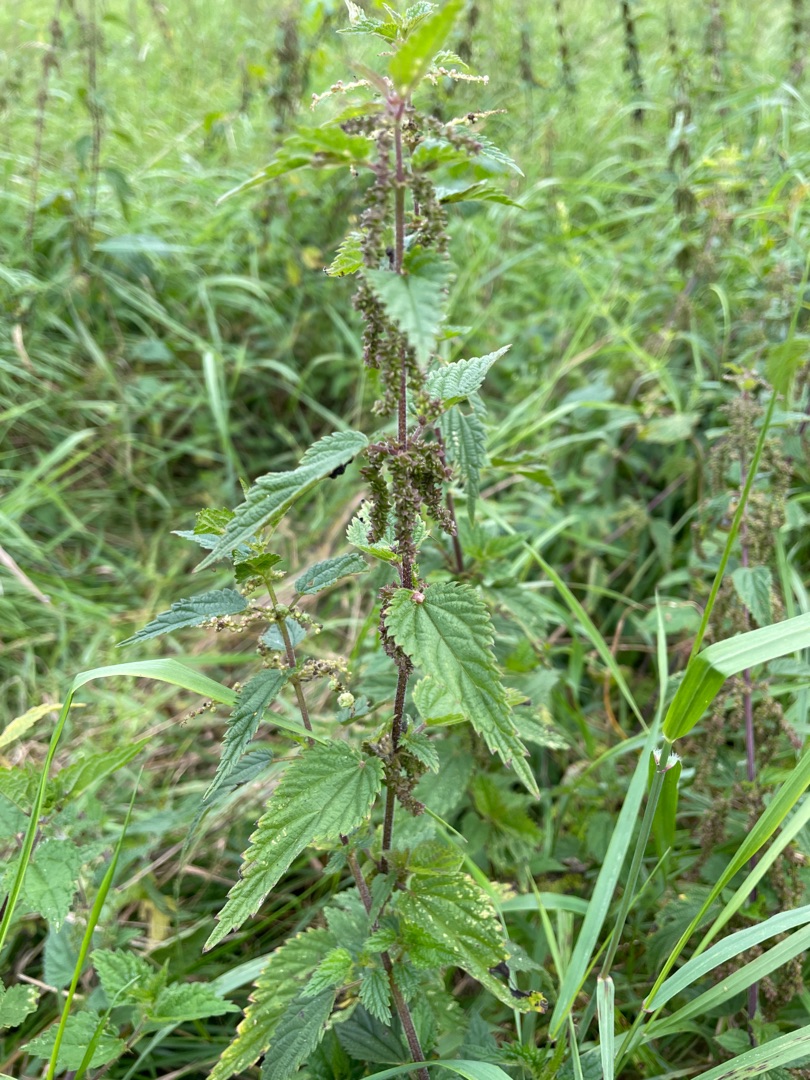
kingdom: Plantae
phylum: Tracheophyta
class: Magnoliopsida
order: Rosales
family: Urticaceae
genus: Urtica
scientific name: Urtica dioica
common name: Stor nælde
